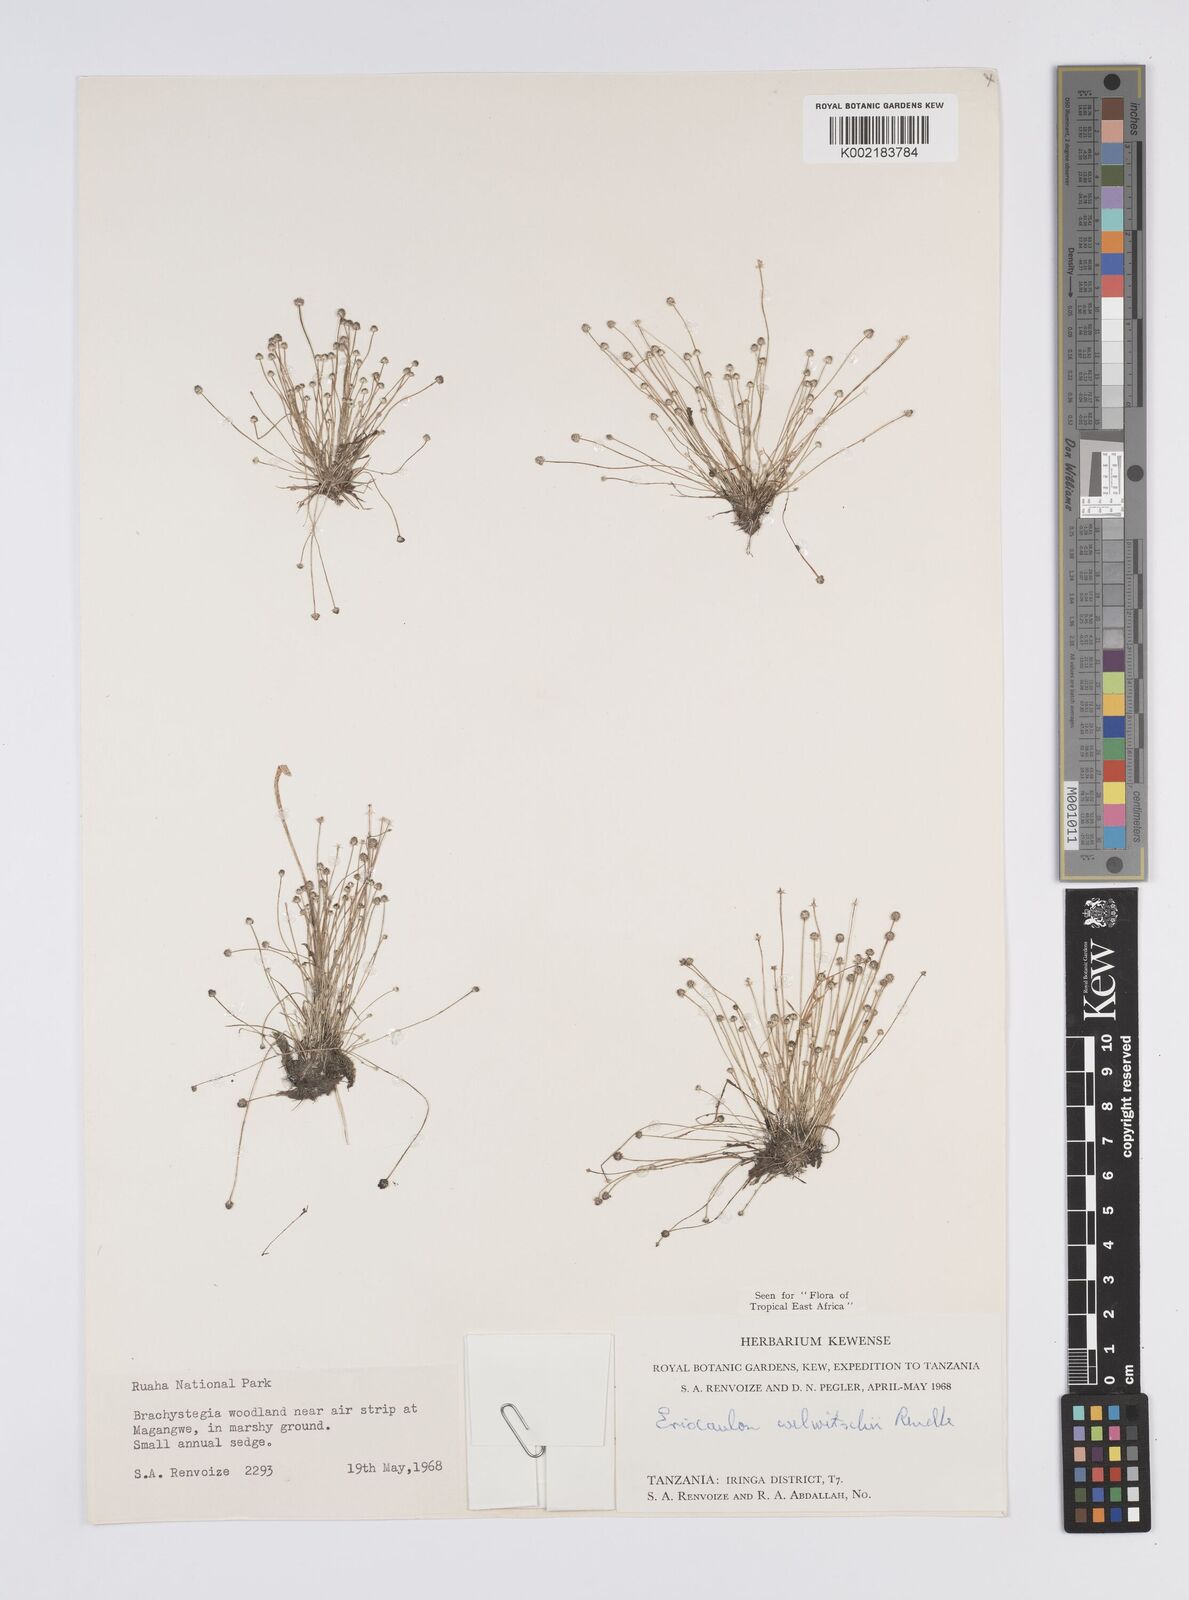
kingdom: Plantae
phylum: Tracheophyta
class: Liliopsida
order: Poales
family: Eriocaulaceae
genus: Eriocaulon
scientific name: Eriocaulon welwitschii
